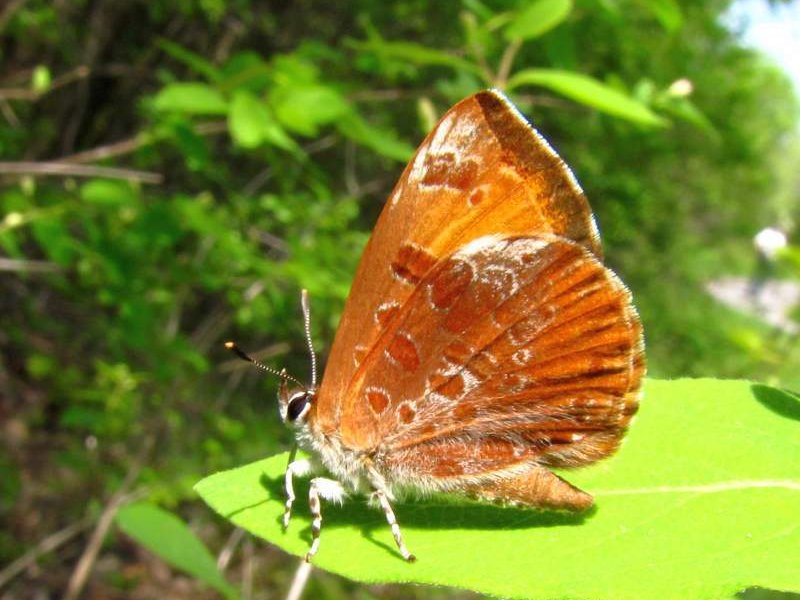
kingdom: Animalia
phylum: Arthropoda
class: Insecta
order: Lepidoptera
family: Lycaenidae
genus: Feniseca
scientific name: Feniseca tarquinius
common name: Harvester
